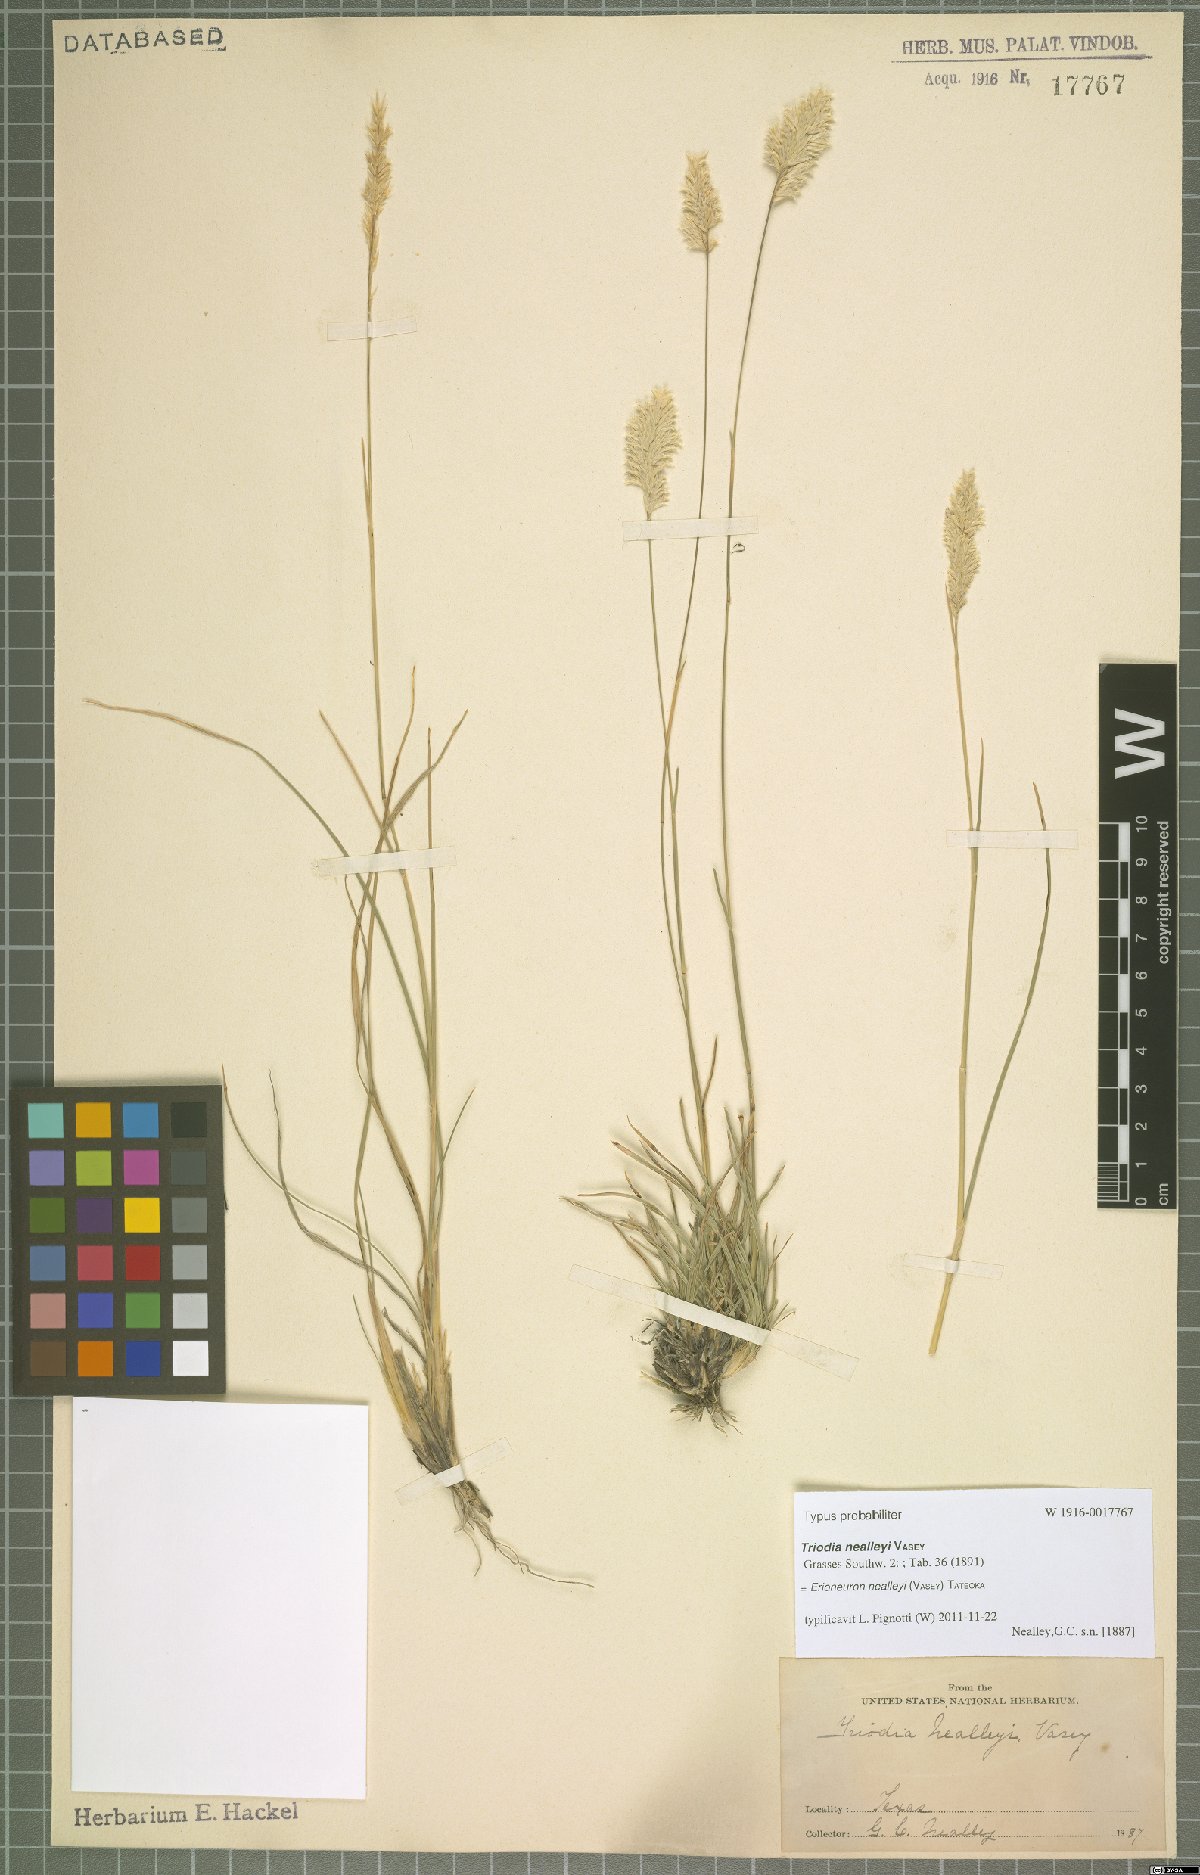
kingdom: Plantae
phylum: Tracheophyta
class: Liliopsida
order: Poales
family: Poaceae
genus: Erioneuron
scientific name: Erioneuron avenaceum
